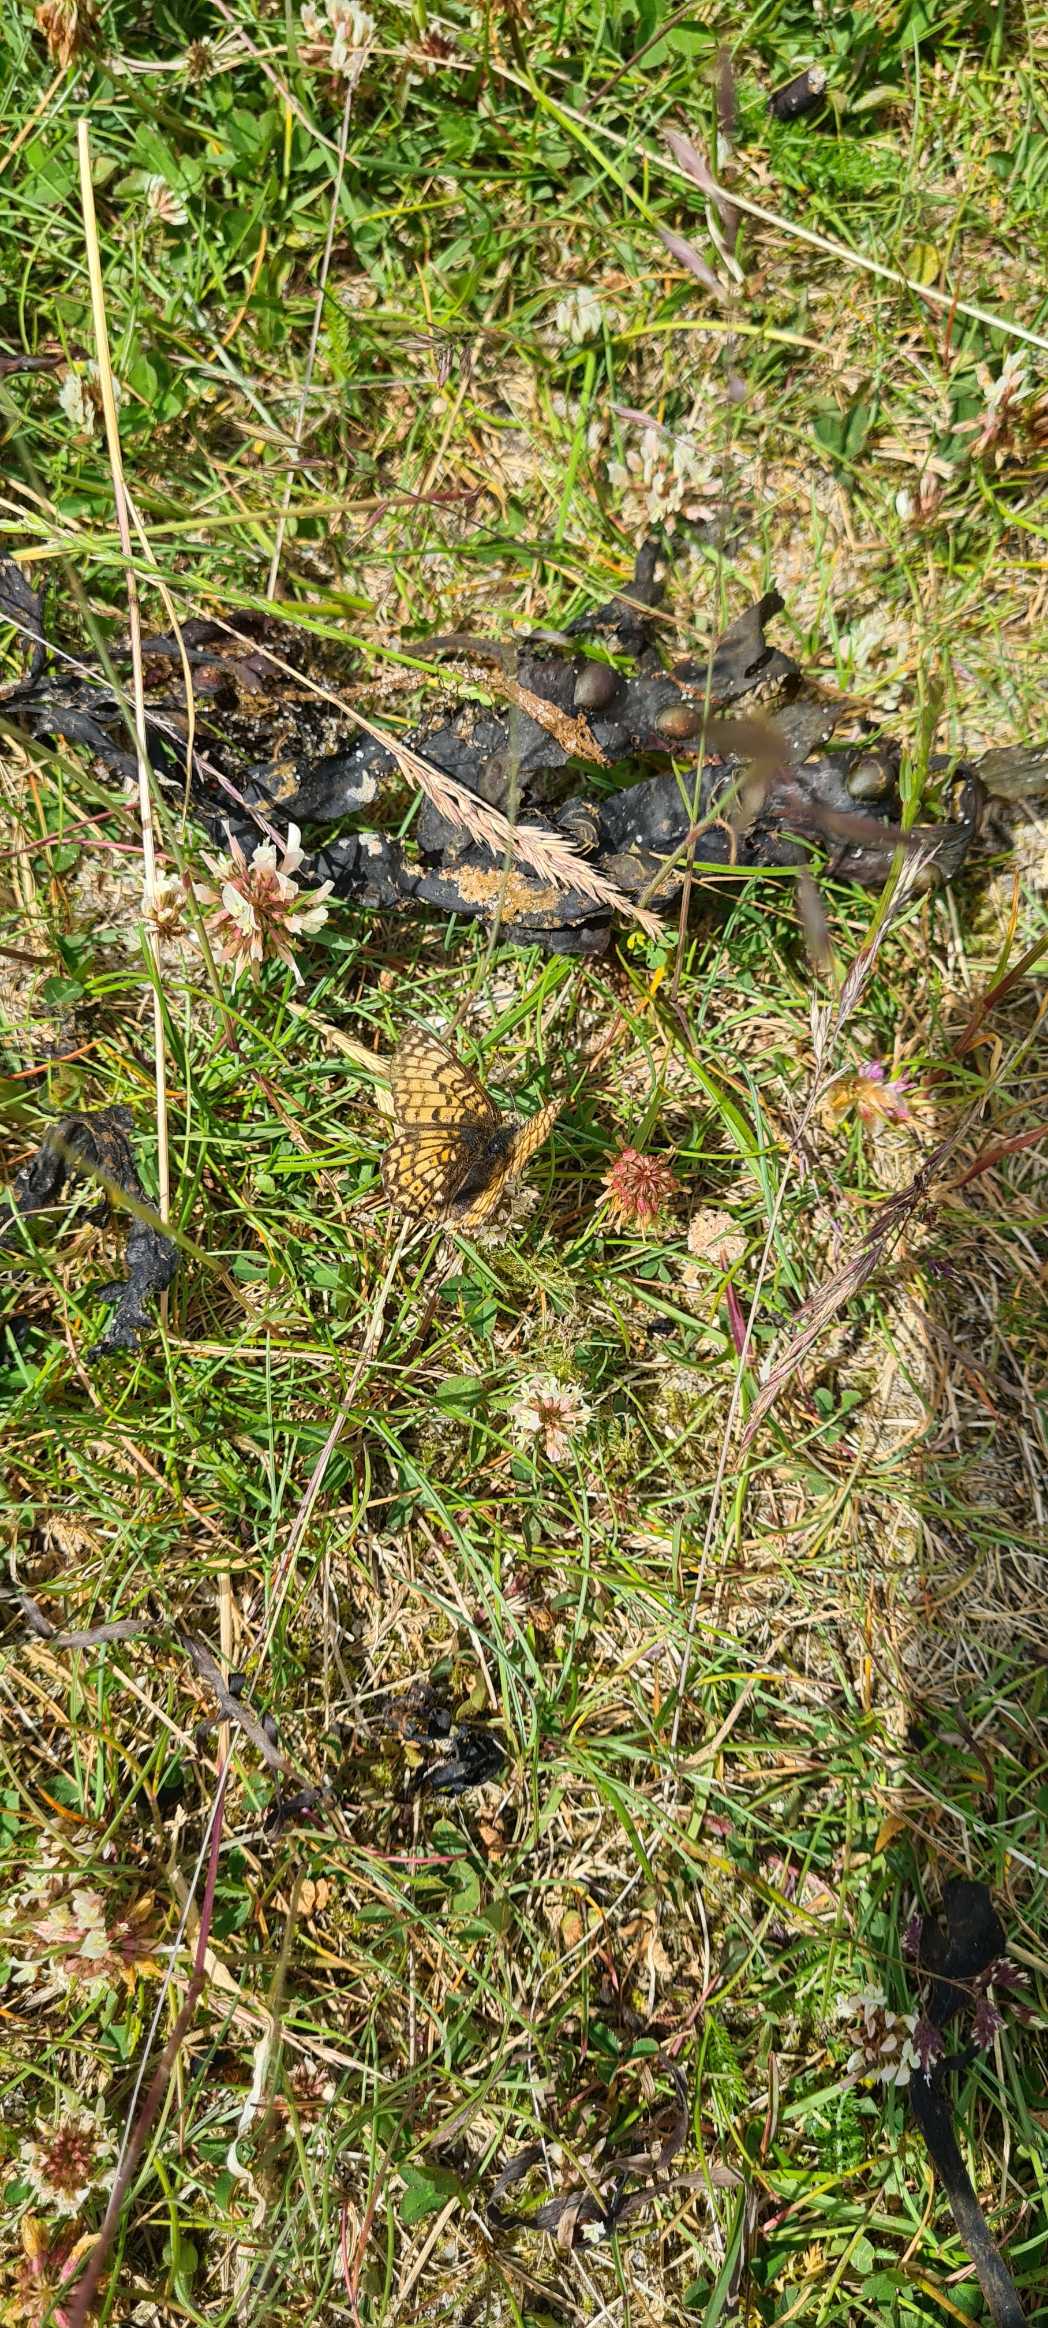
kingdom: Animalia
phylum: Arthropoda
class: Insecta
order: Lepidoptera
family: Nymphalidae
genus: Melitaea
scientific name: Melitaea cinxia
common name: Okkergul pletvinge
